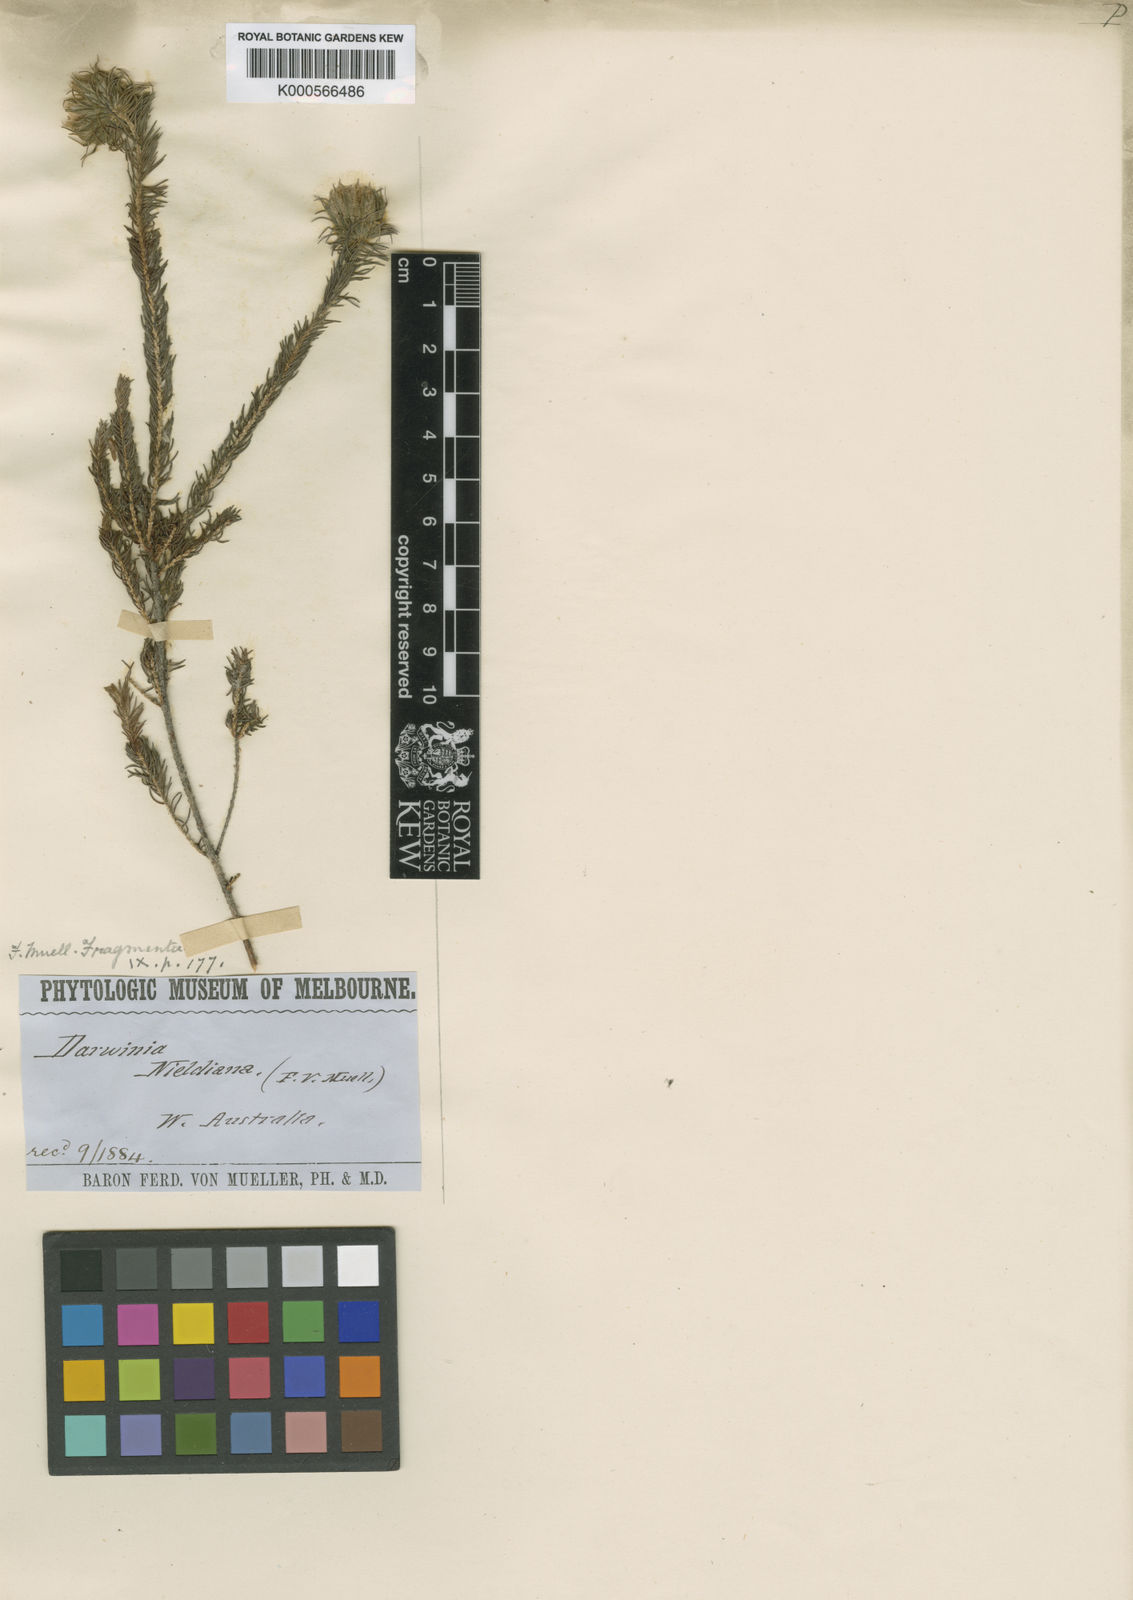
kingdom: Plantae
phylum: Tracheophyta
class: Magnoliopsida
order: Myrtales
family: Myrtaceae
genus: Darwinia
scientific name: Darwinia
